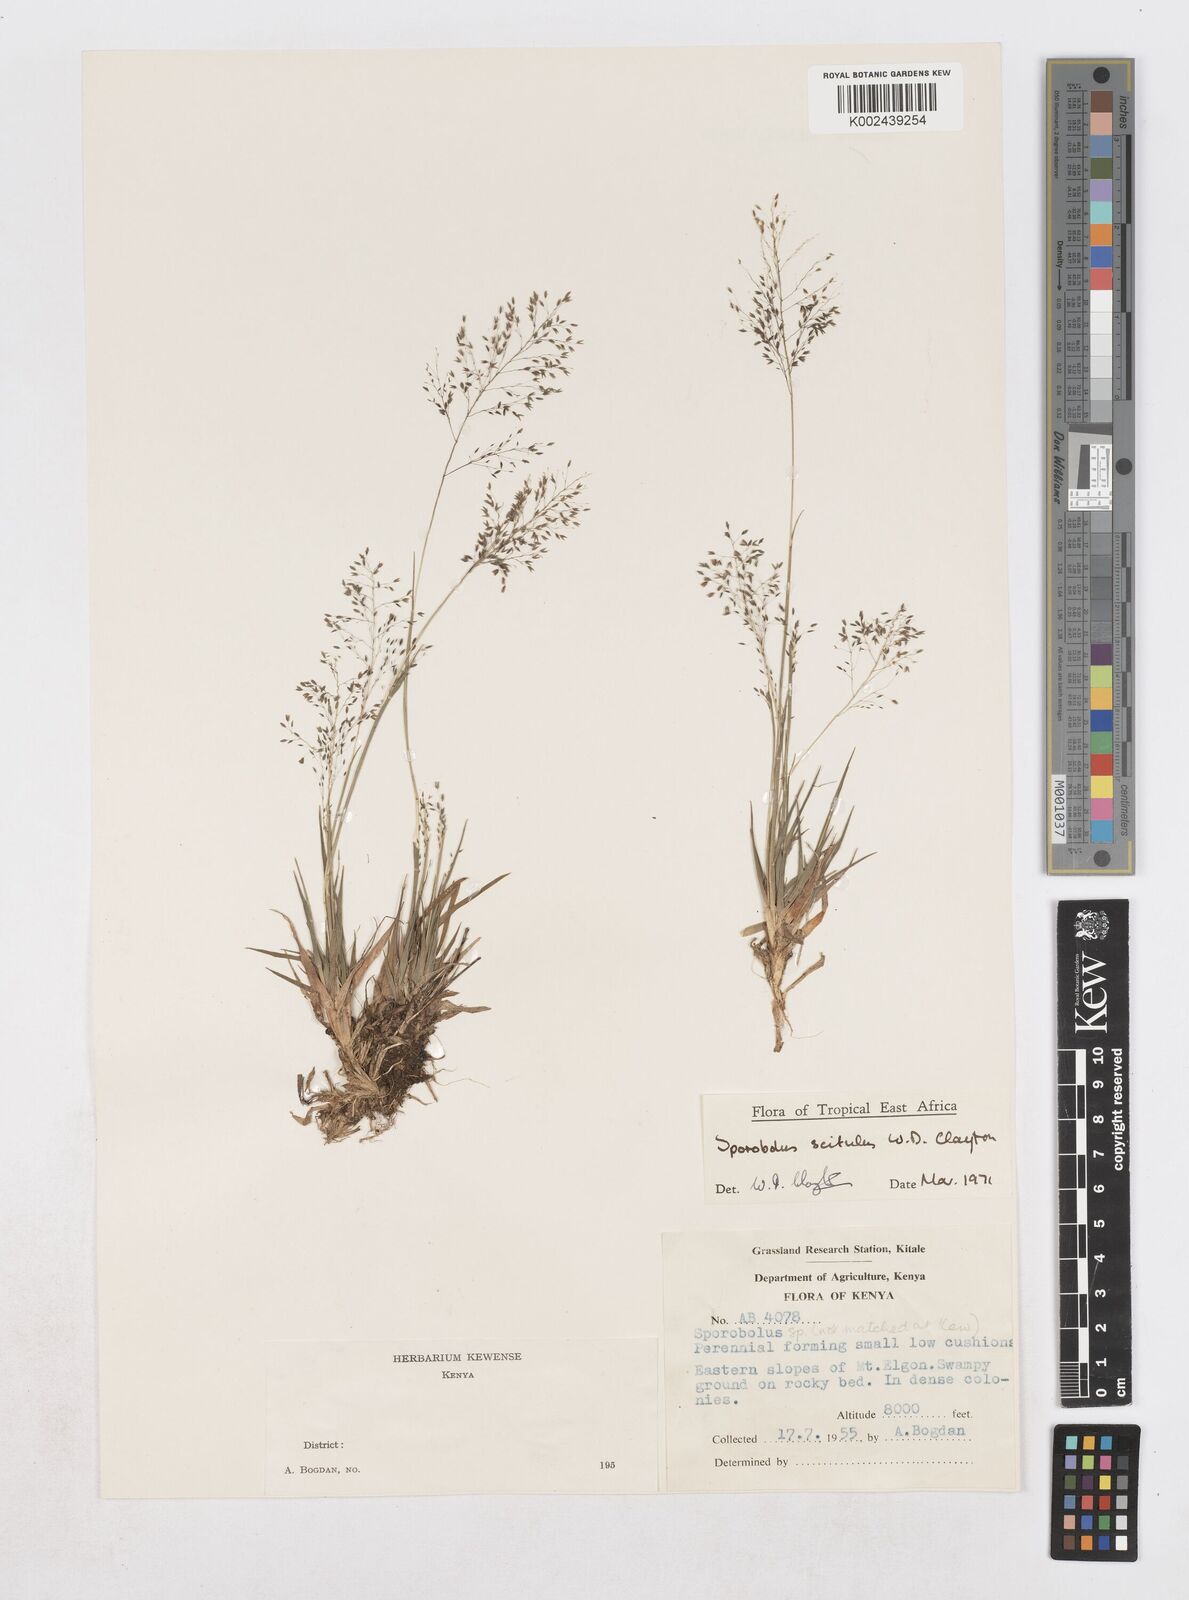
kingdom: Plantae
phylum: Tracheophyta
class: Liliopsida
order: Poales
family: Poaceae
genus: Sporobolus
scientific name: Sporobolus scitulus
